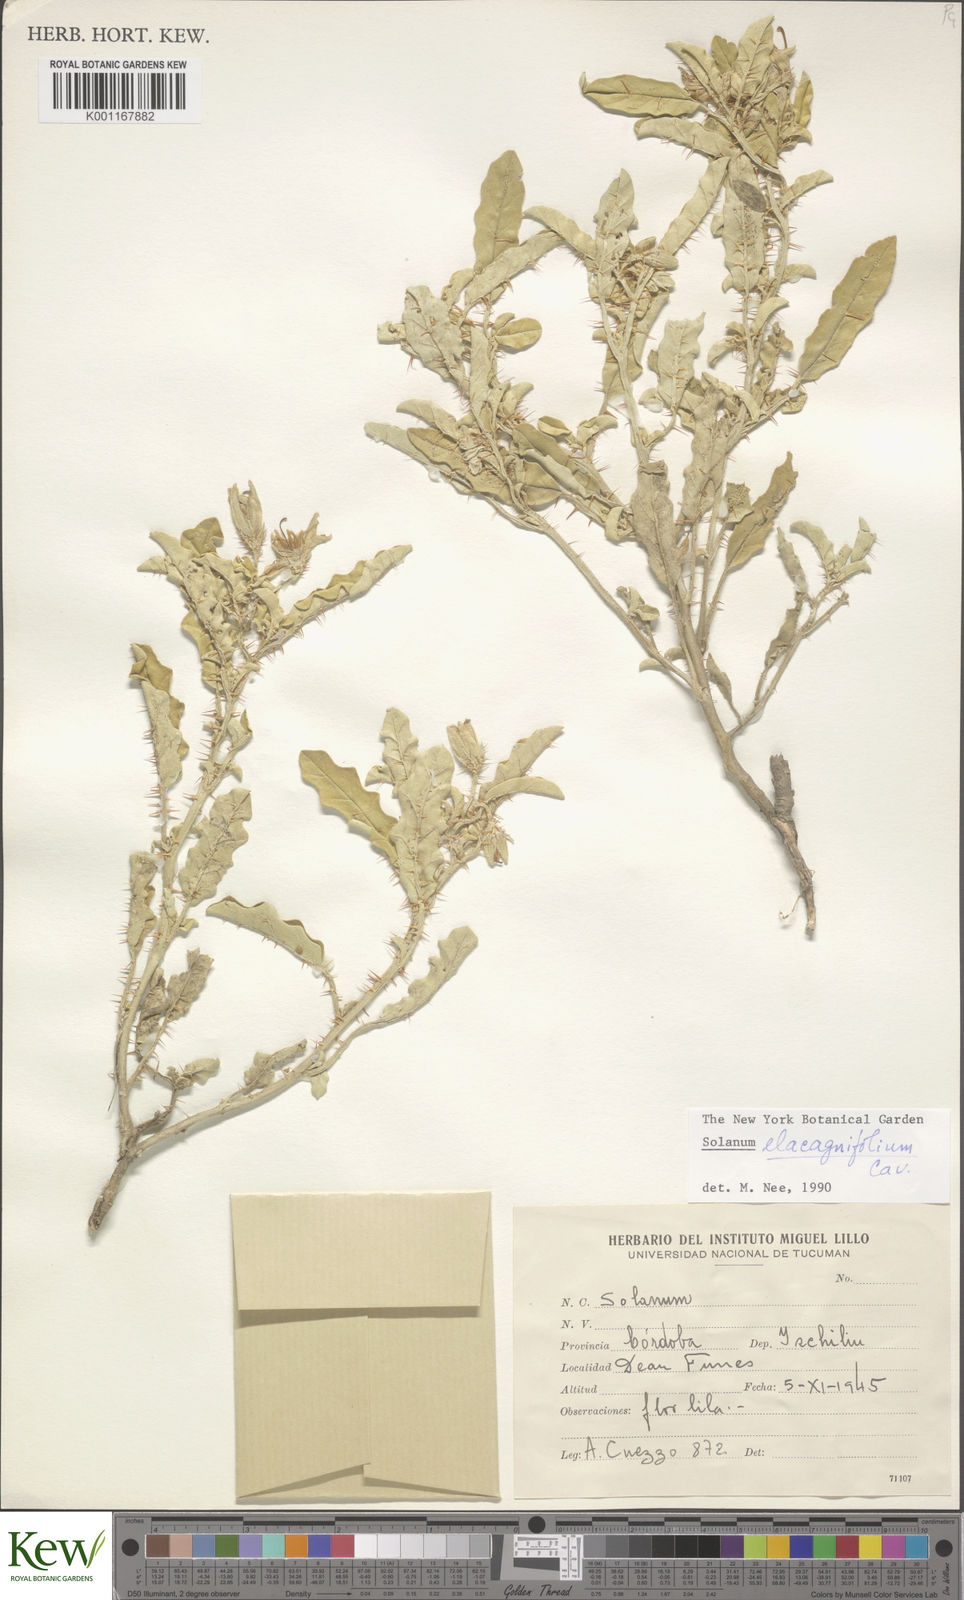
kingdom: Plantae
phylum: Tracheophyta
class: Magnoliopsida
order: Solanales
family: Solanaceae
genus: Solanum
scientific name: Solanum elaeagnifolium
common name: Silverleaf nightshade
